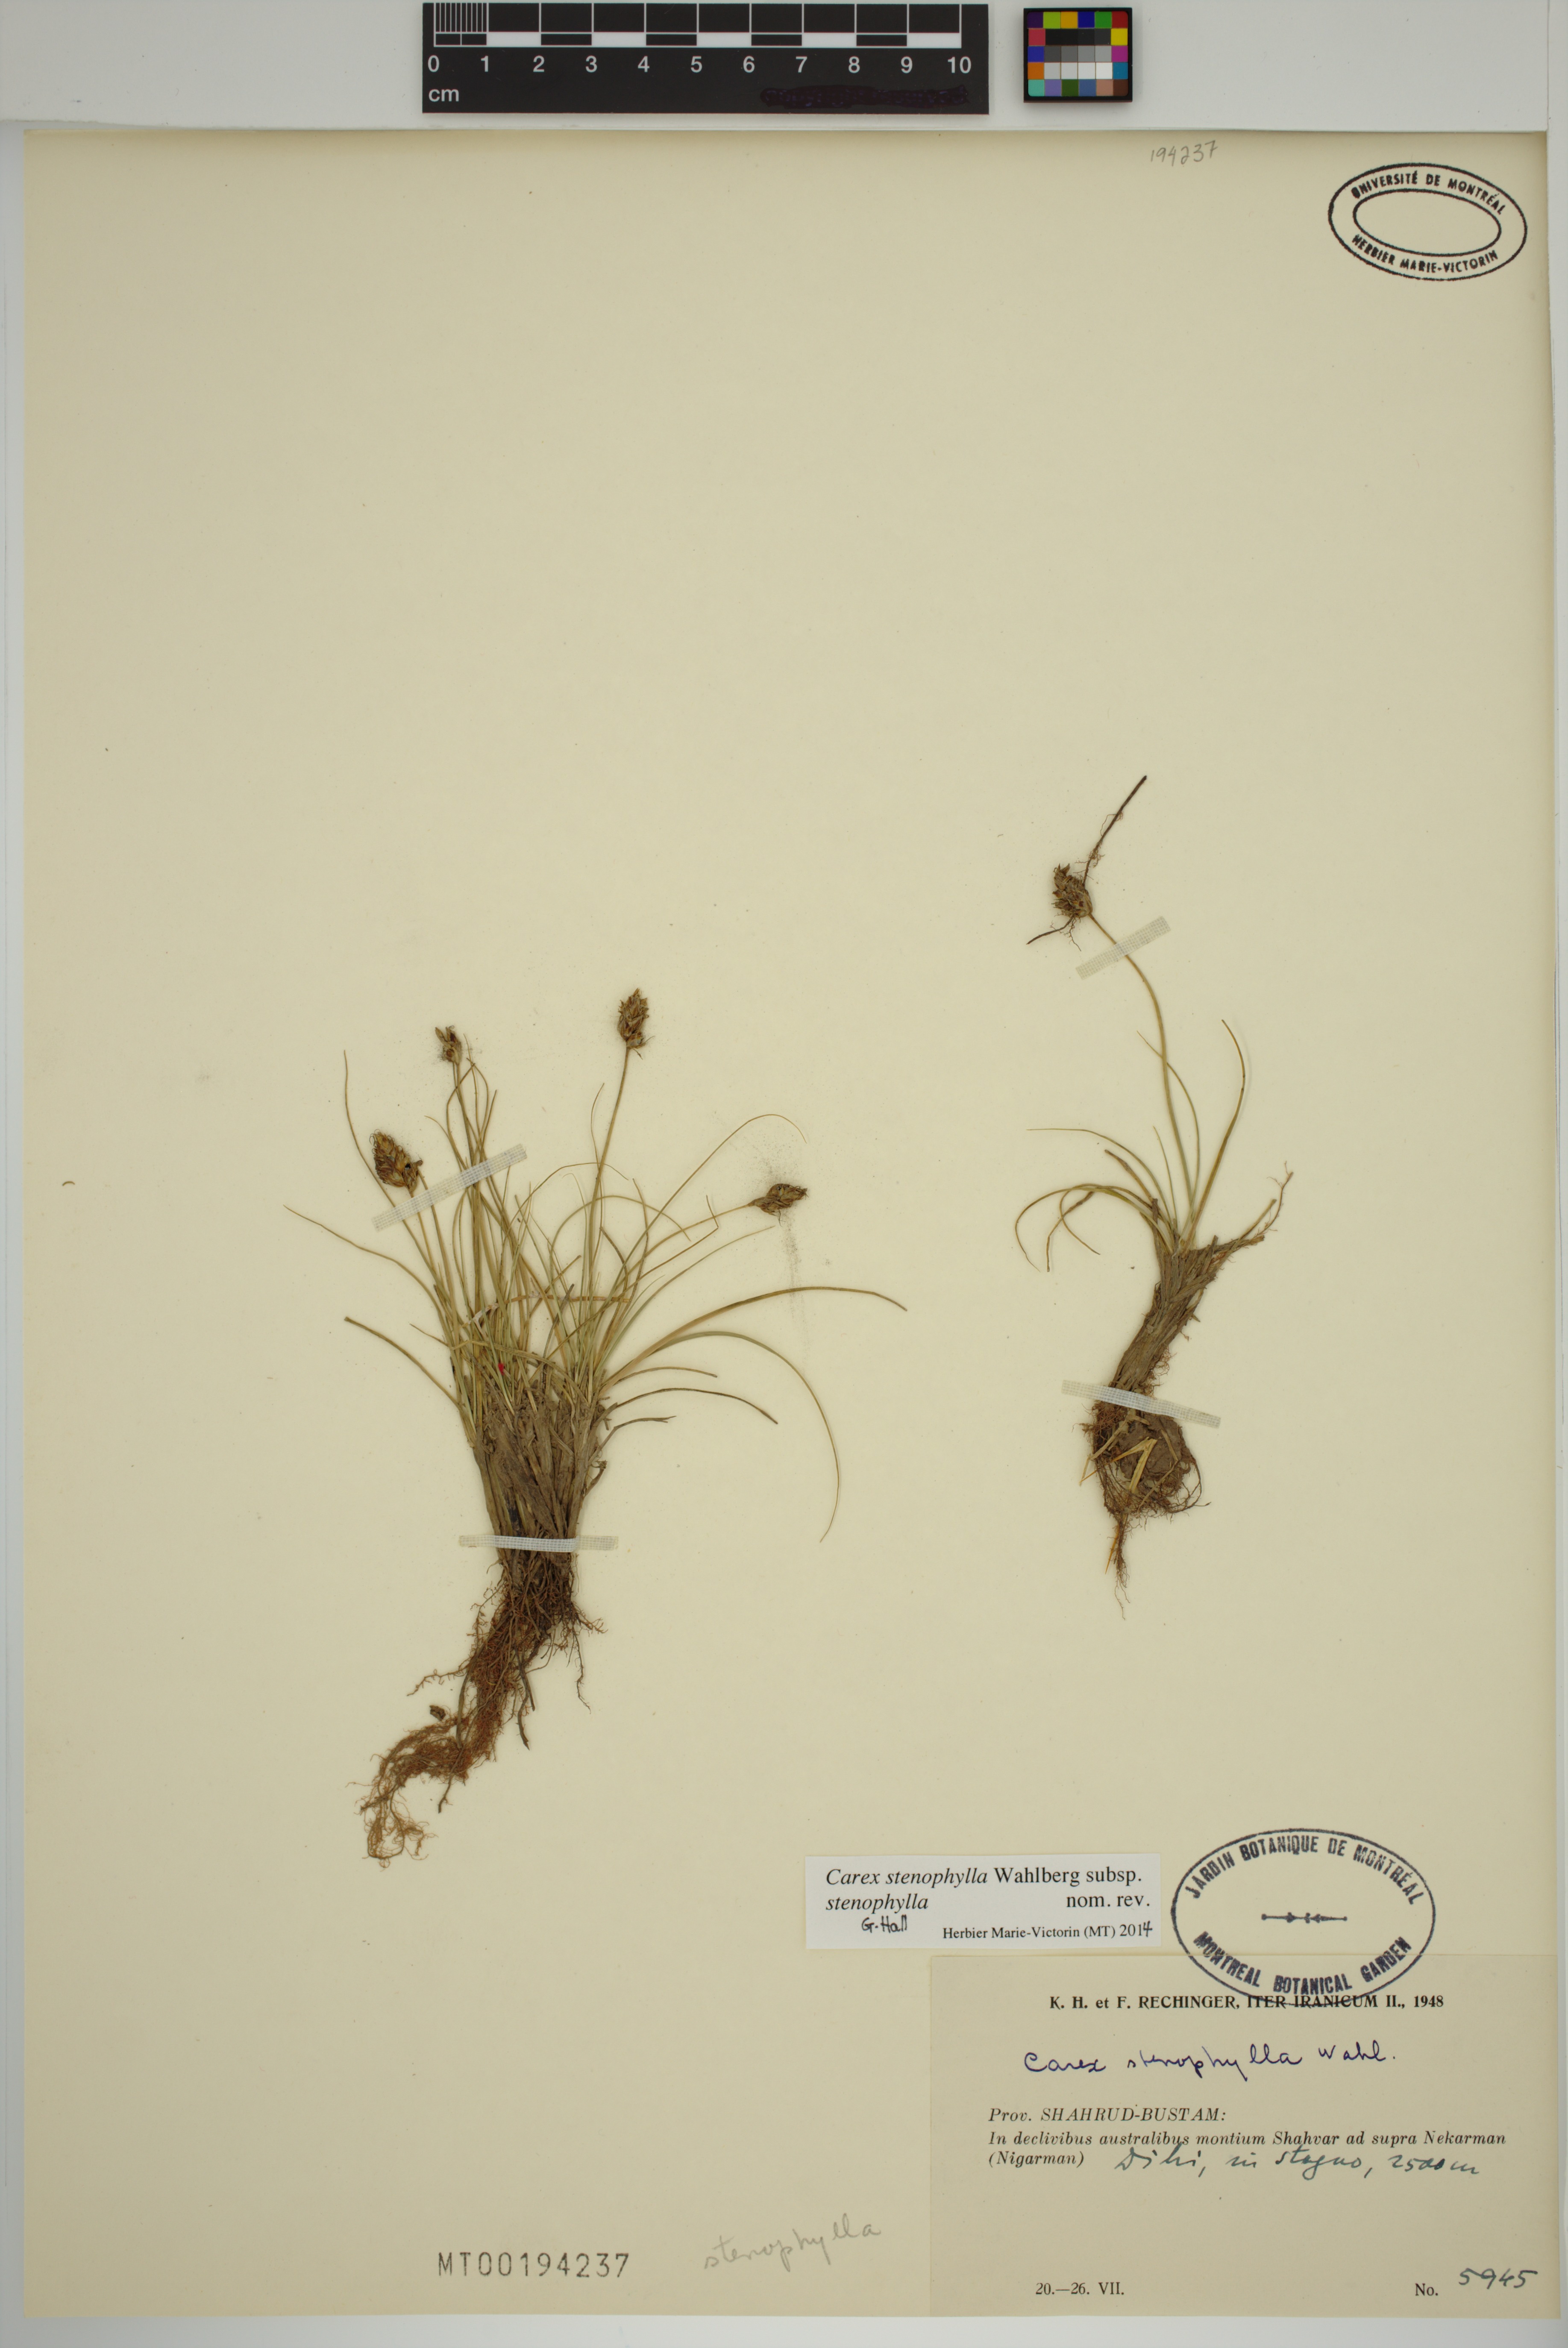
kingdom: Plantae
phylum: Tracheophyta
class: Liliopsida
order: Poales
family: Cyperaceae
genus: Carex
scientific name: Carex stenophylla
